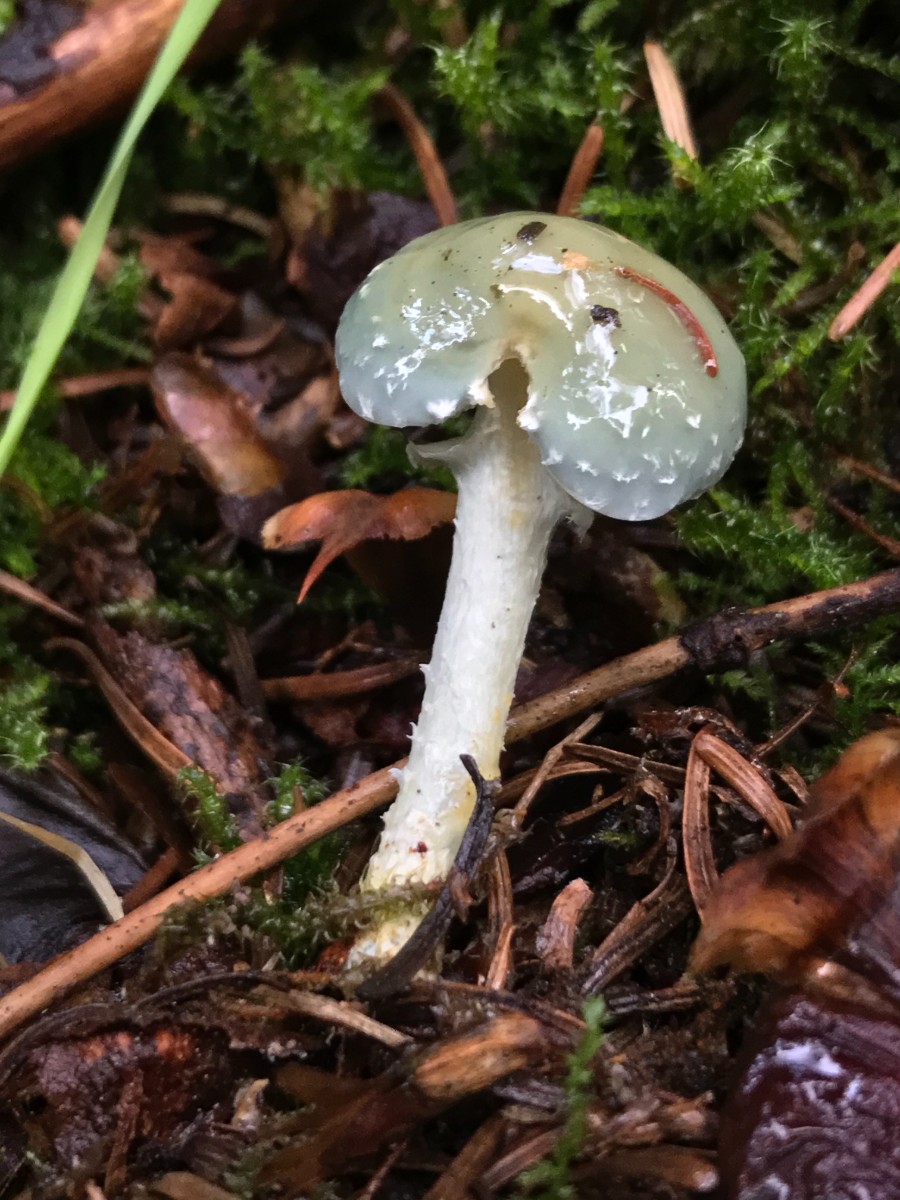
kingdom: Fungi
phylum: Basidiomycota
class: Agaricomycetes
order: Agaricales
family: Strophariaceae
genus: Stropharia
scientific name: Stropharia aeruginosa
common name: spanskgrøn bredblad
